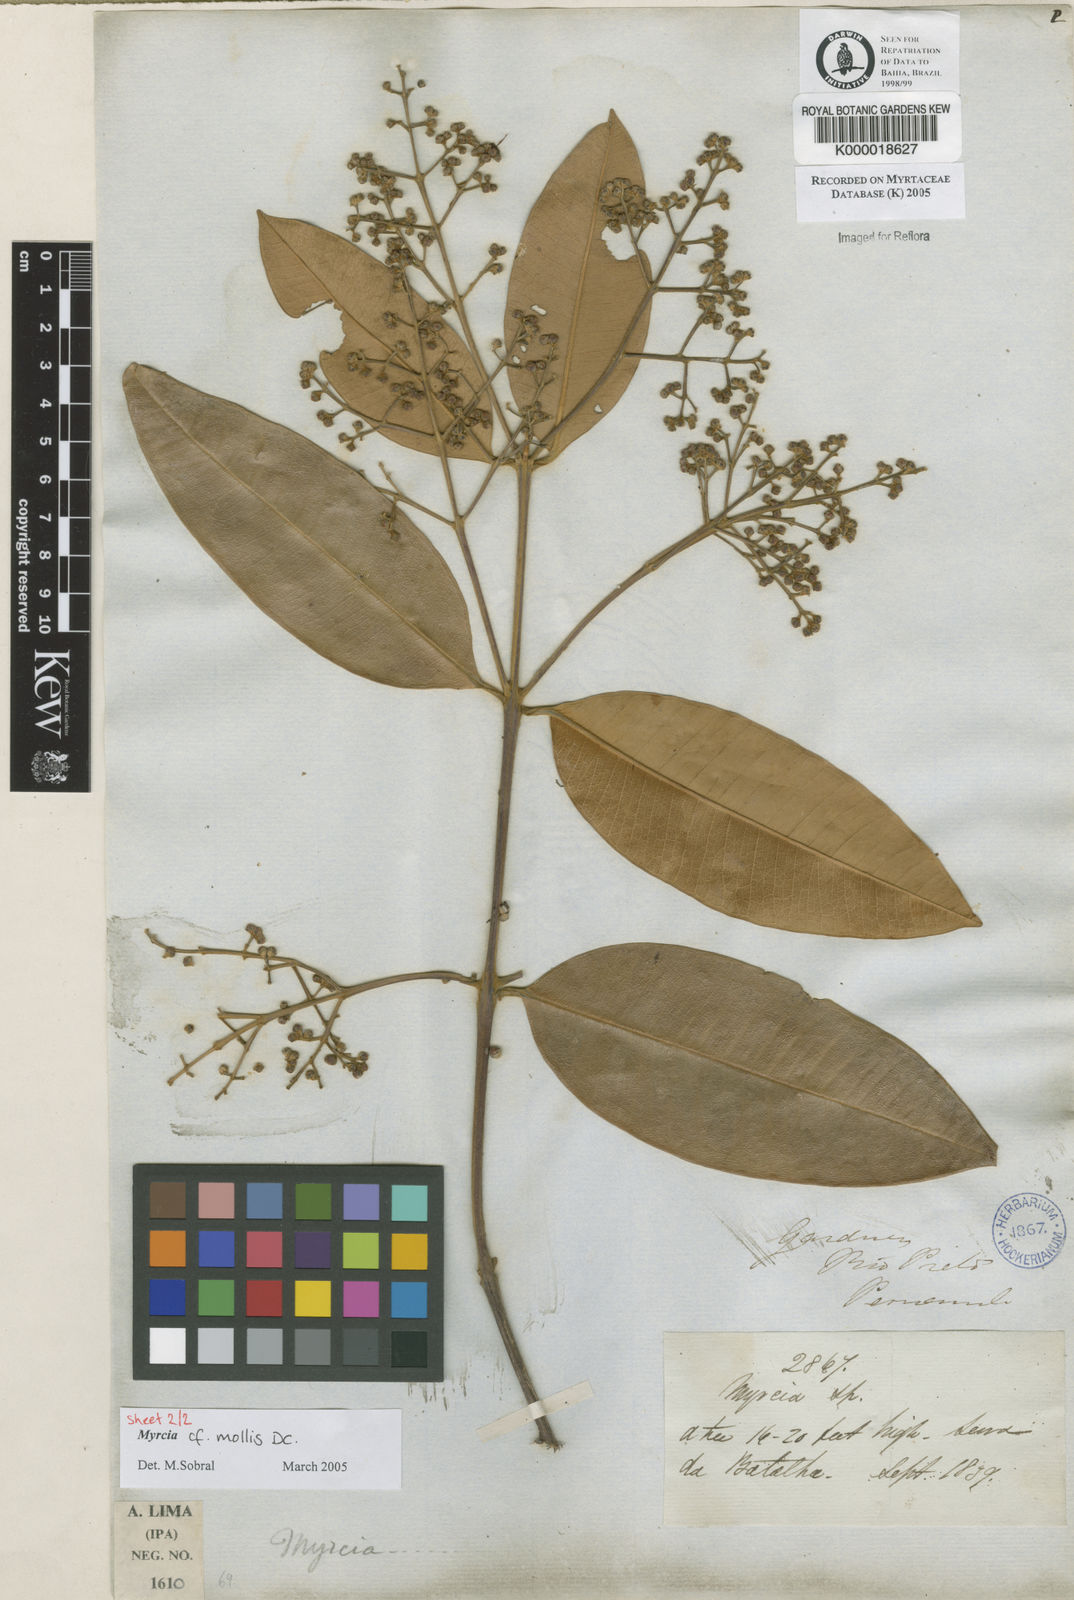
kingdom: Plantae
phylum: Tracheophyta
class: Magnoliopsida
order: Myrtales
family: Myrtaceae
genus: Myrcia
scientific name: Myrcia
